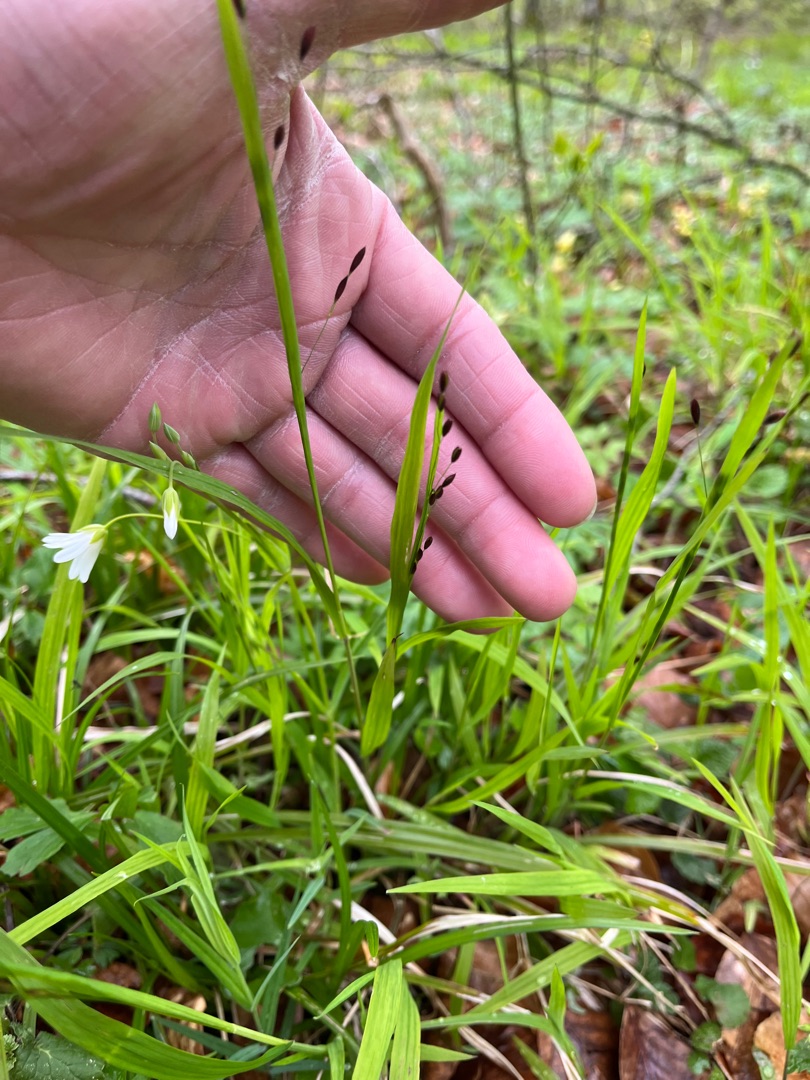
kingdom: Plantae
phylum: Tracheophyta
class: Liliopsida
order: Poales
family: Poaceae
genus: Melica
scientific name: Melica uniflora
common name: Enblomstret flitteraks
